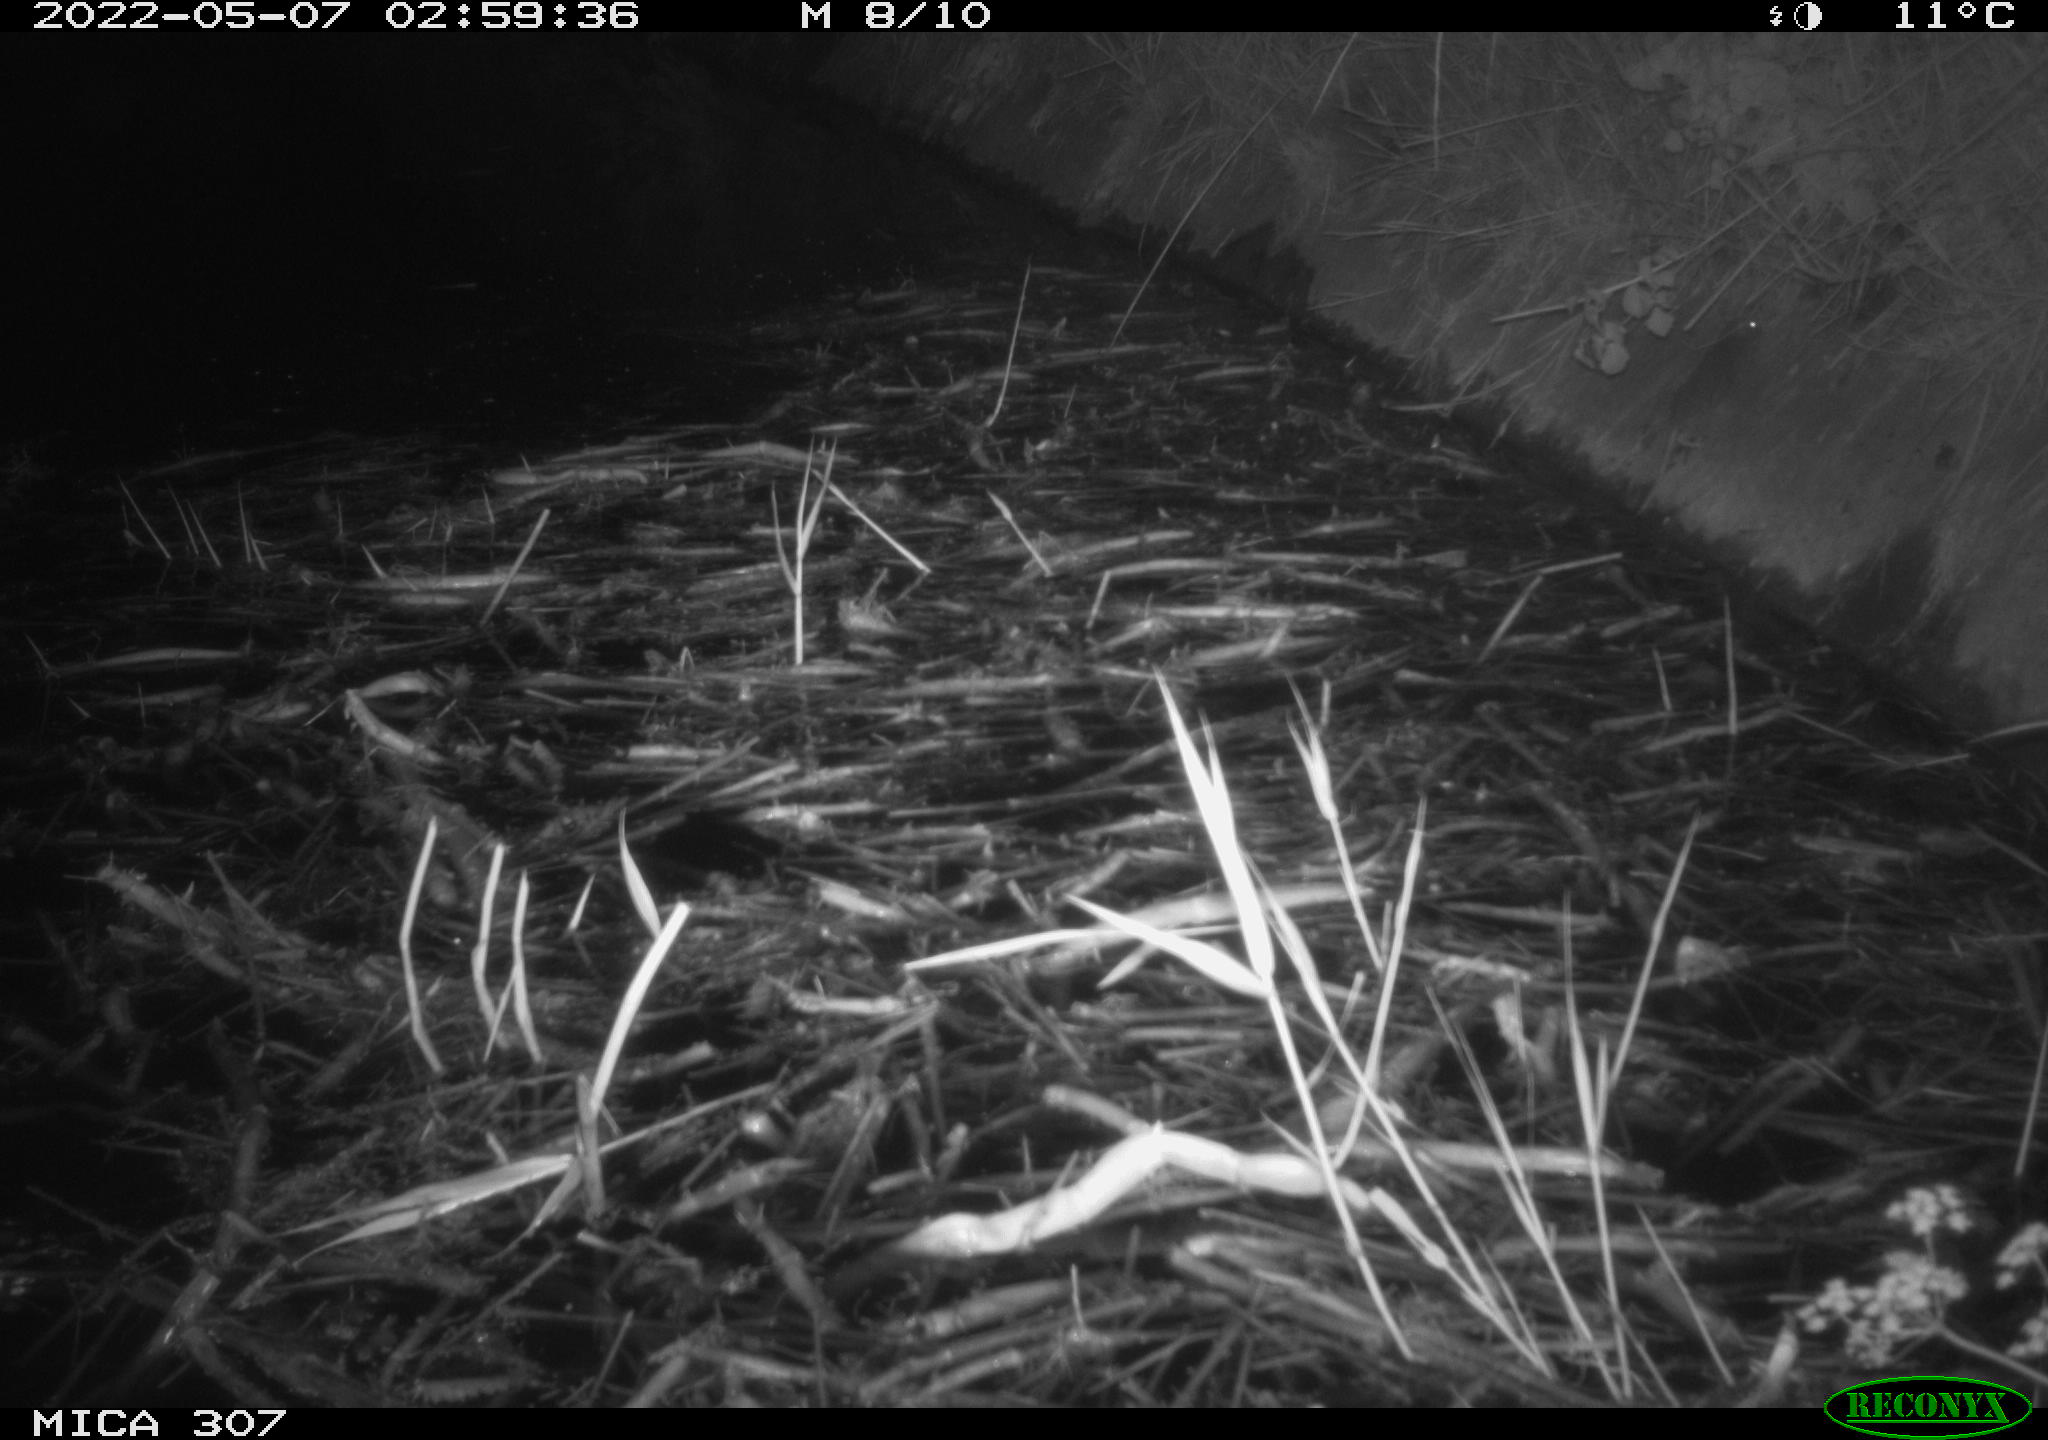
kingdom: Animalia
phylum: Chordata
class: Mammalia
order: Rodentia
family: Muridae
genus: Rattus
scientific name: Rattus norvegicus
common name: Brown rat
